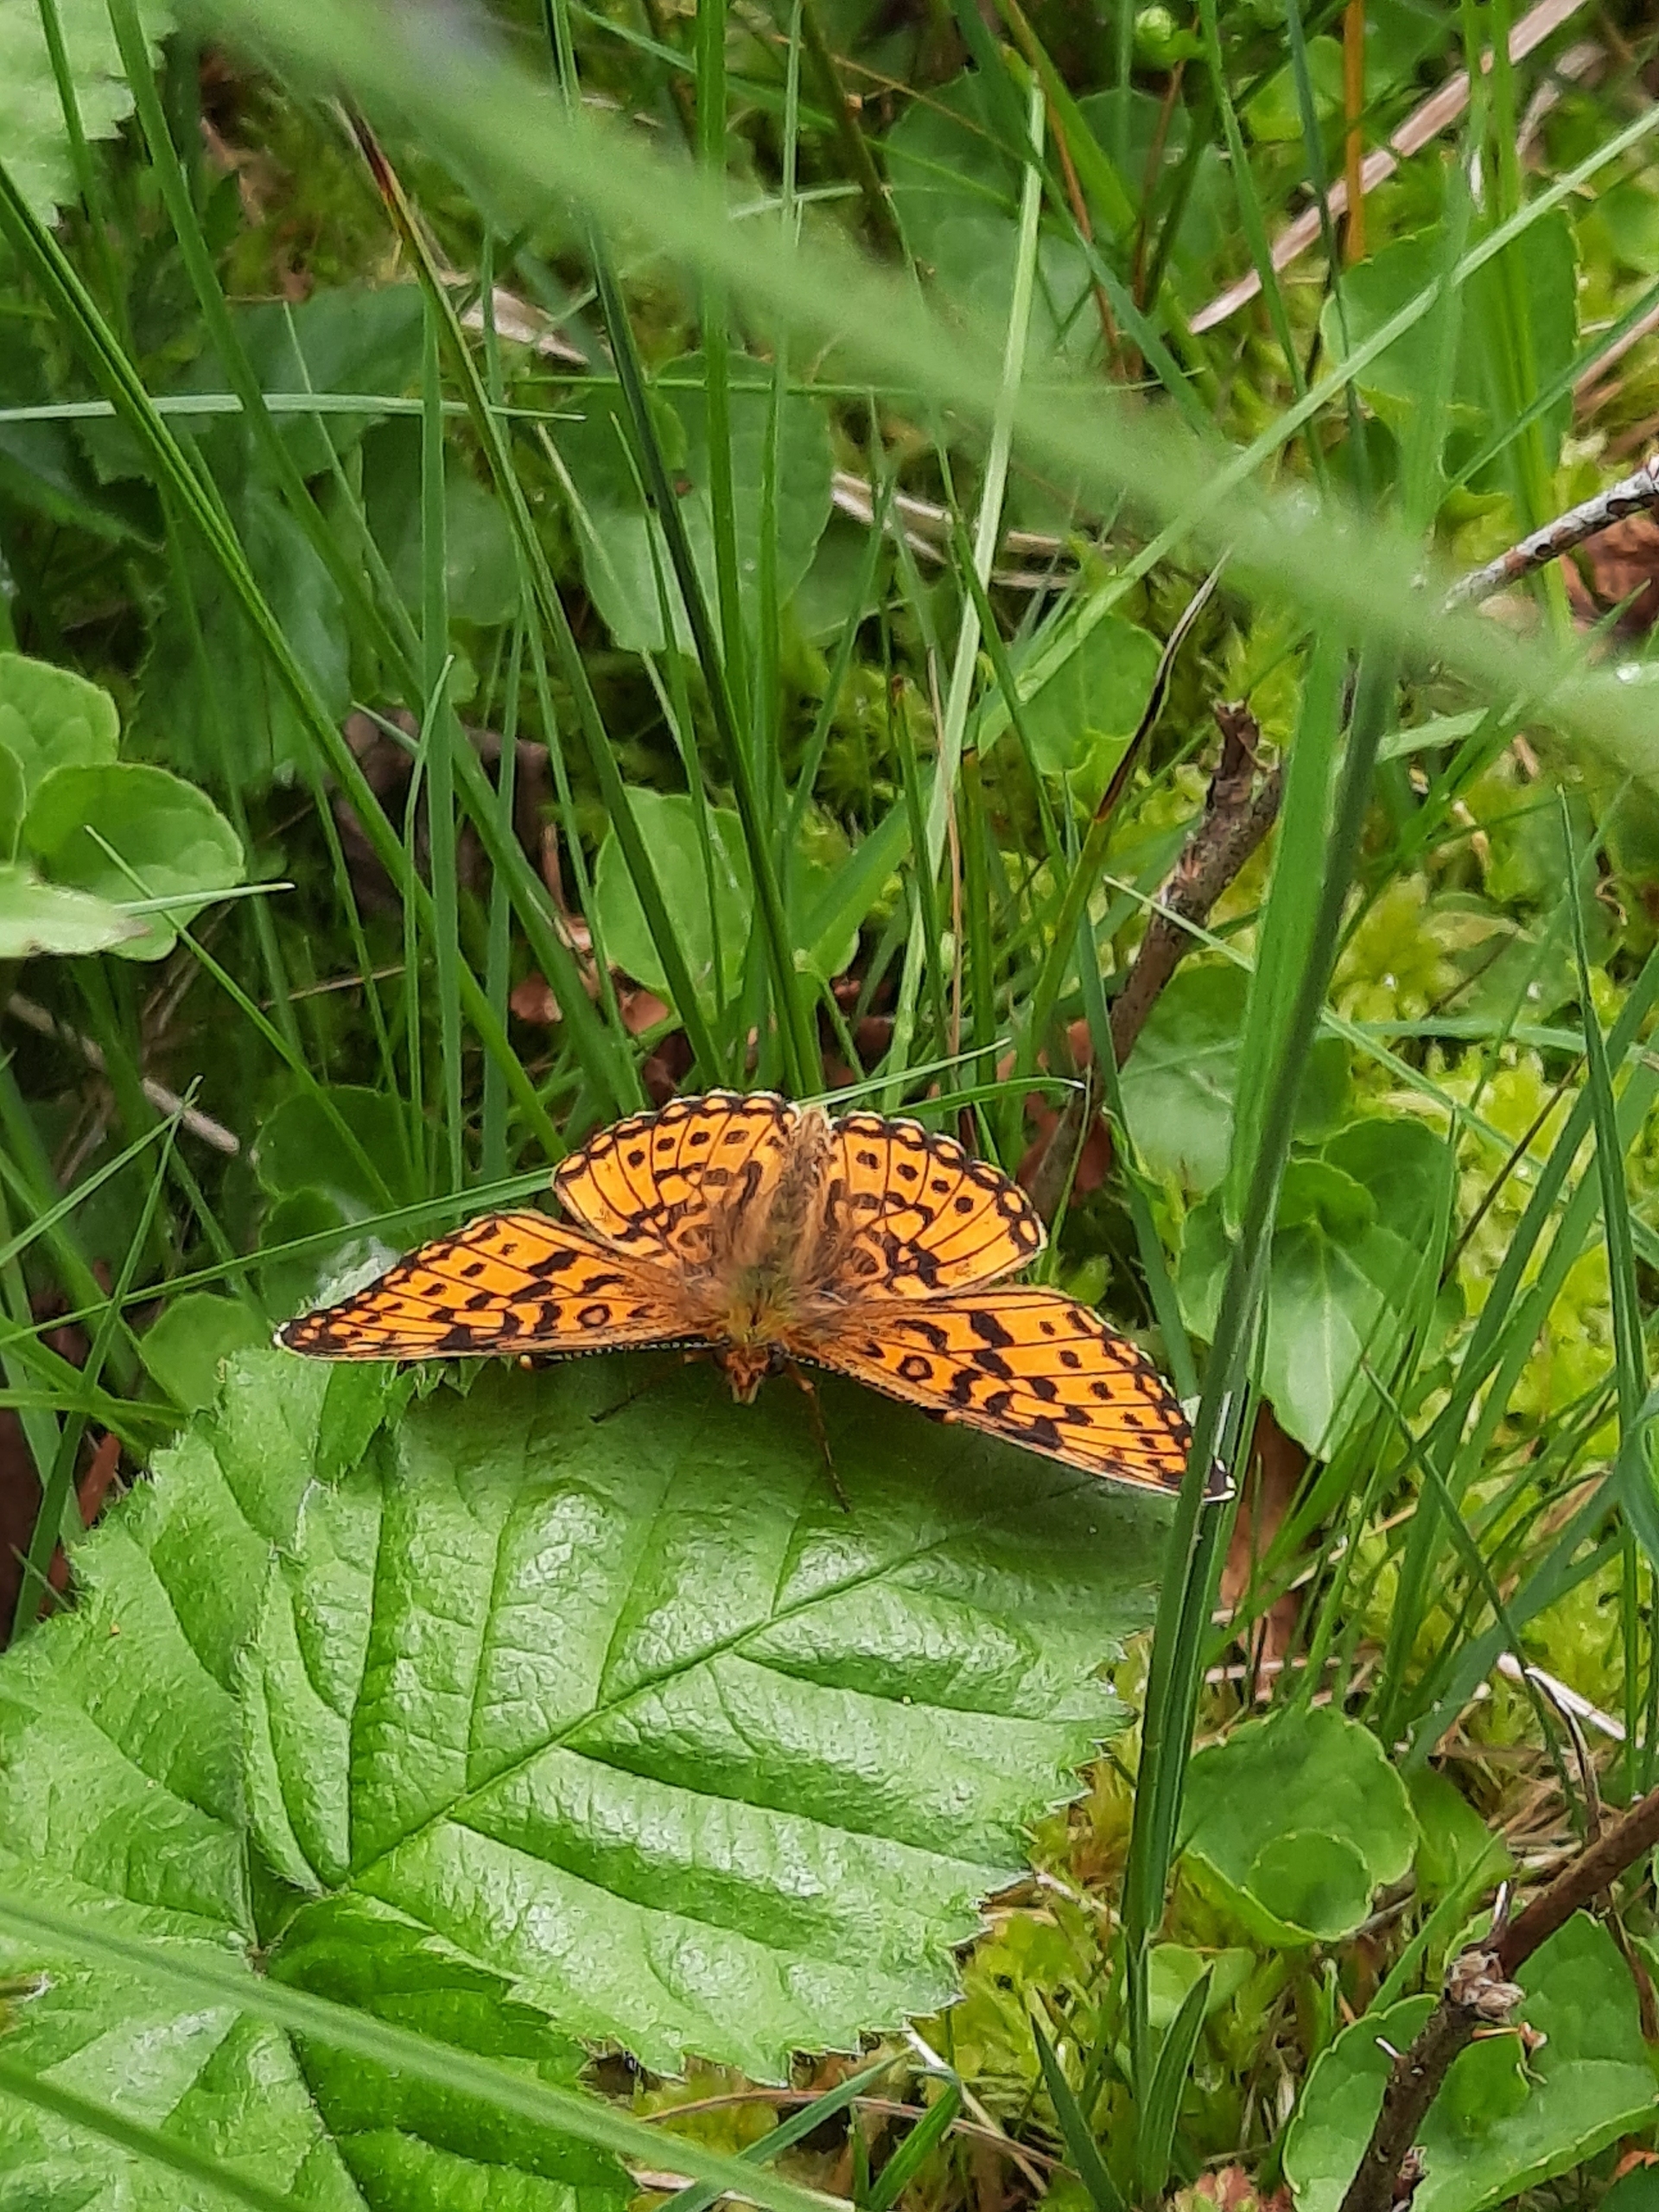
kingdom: Animalia
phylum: Arthropoda
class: Insecta
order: Lepidoptera
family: Nymphalidae
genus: Boloria
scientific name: Boloria selene
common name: Brunlig perlemorsommerfugl
